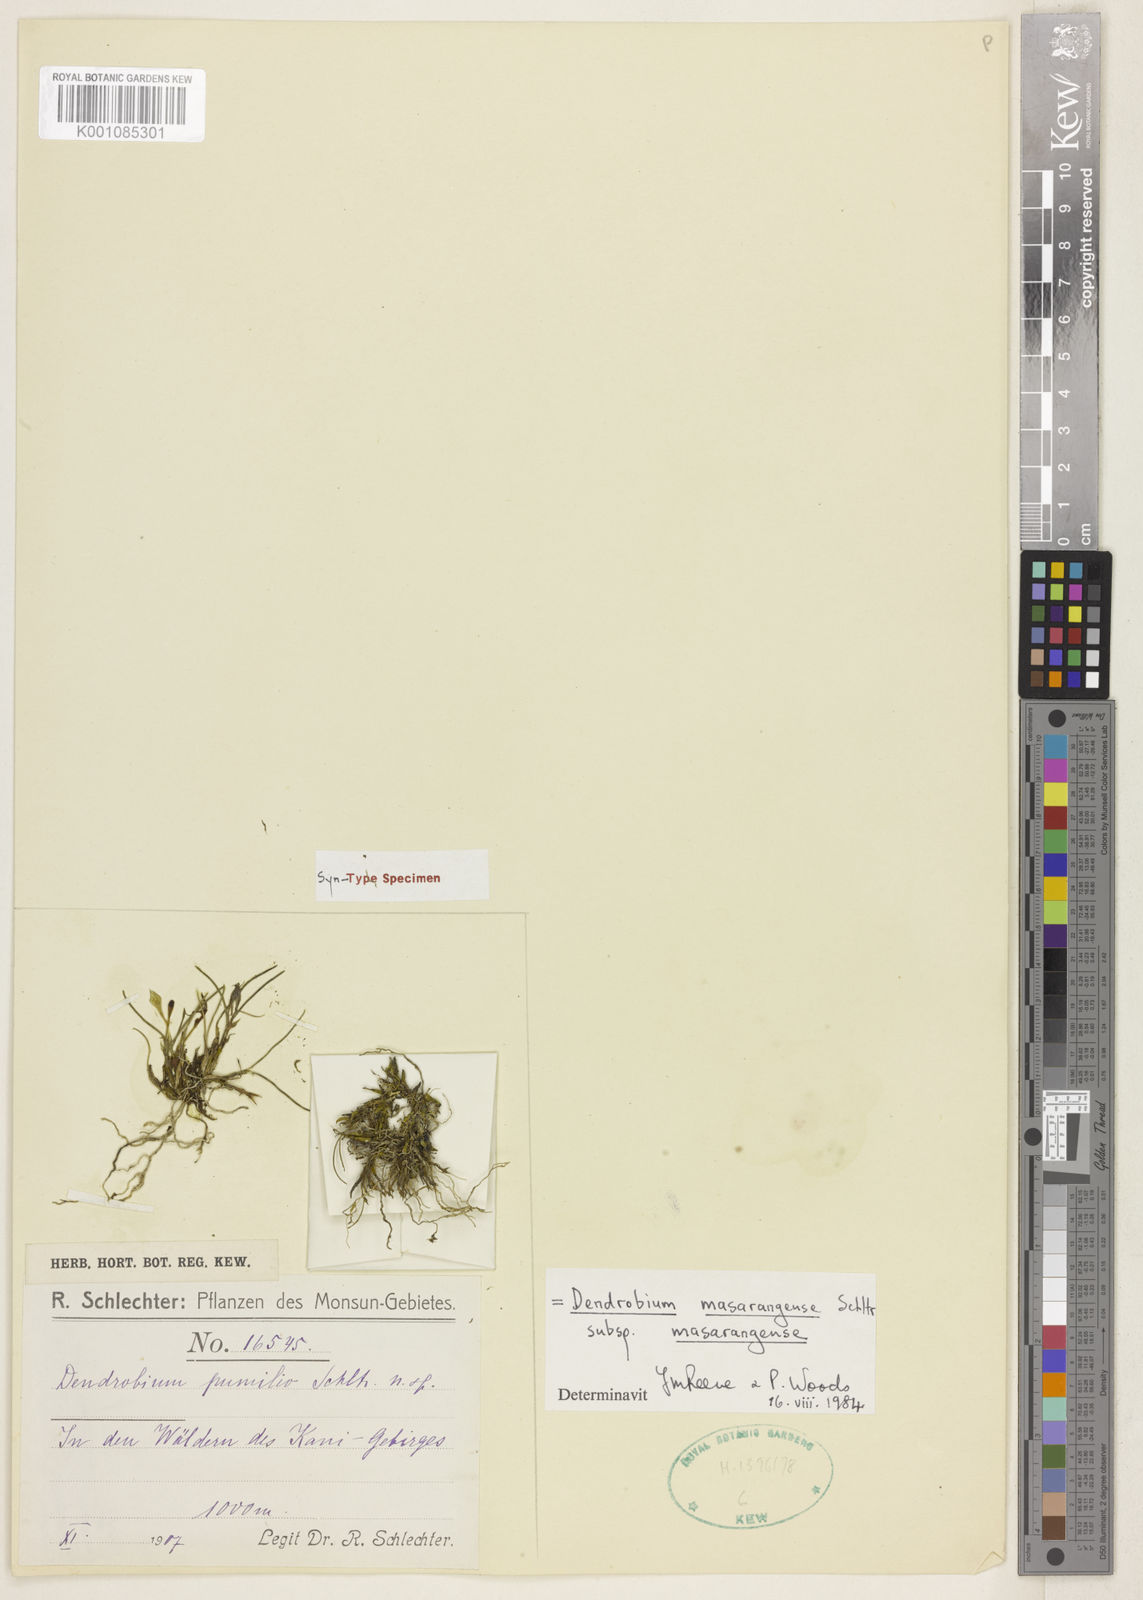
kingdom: Plantae
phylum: Tracheophyta
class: Liliopsida
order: Asparagales
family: Orchidaceae
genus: Dendrobium
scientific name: Dendrobium masarangense
